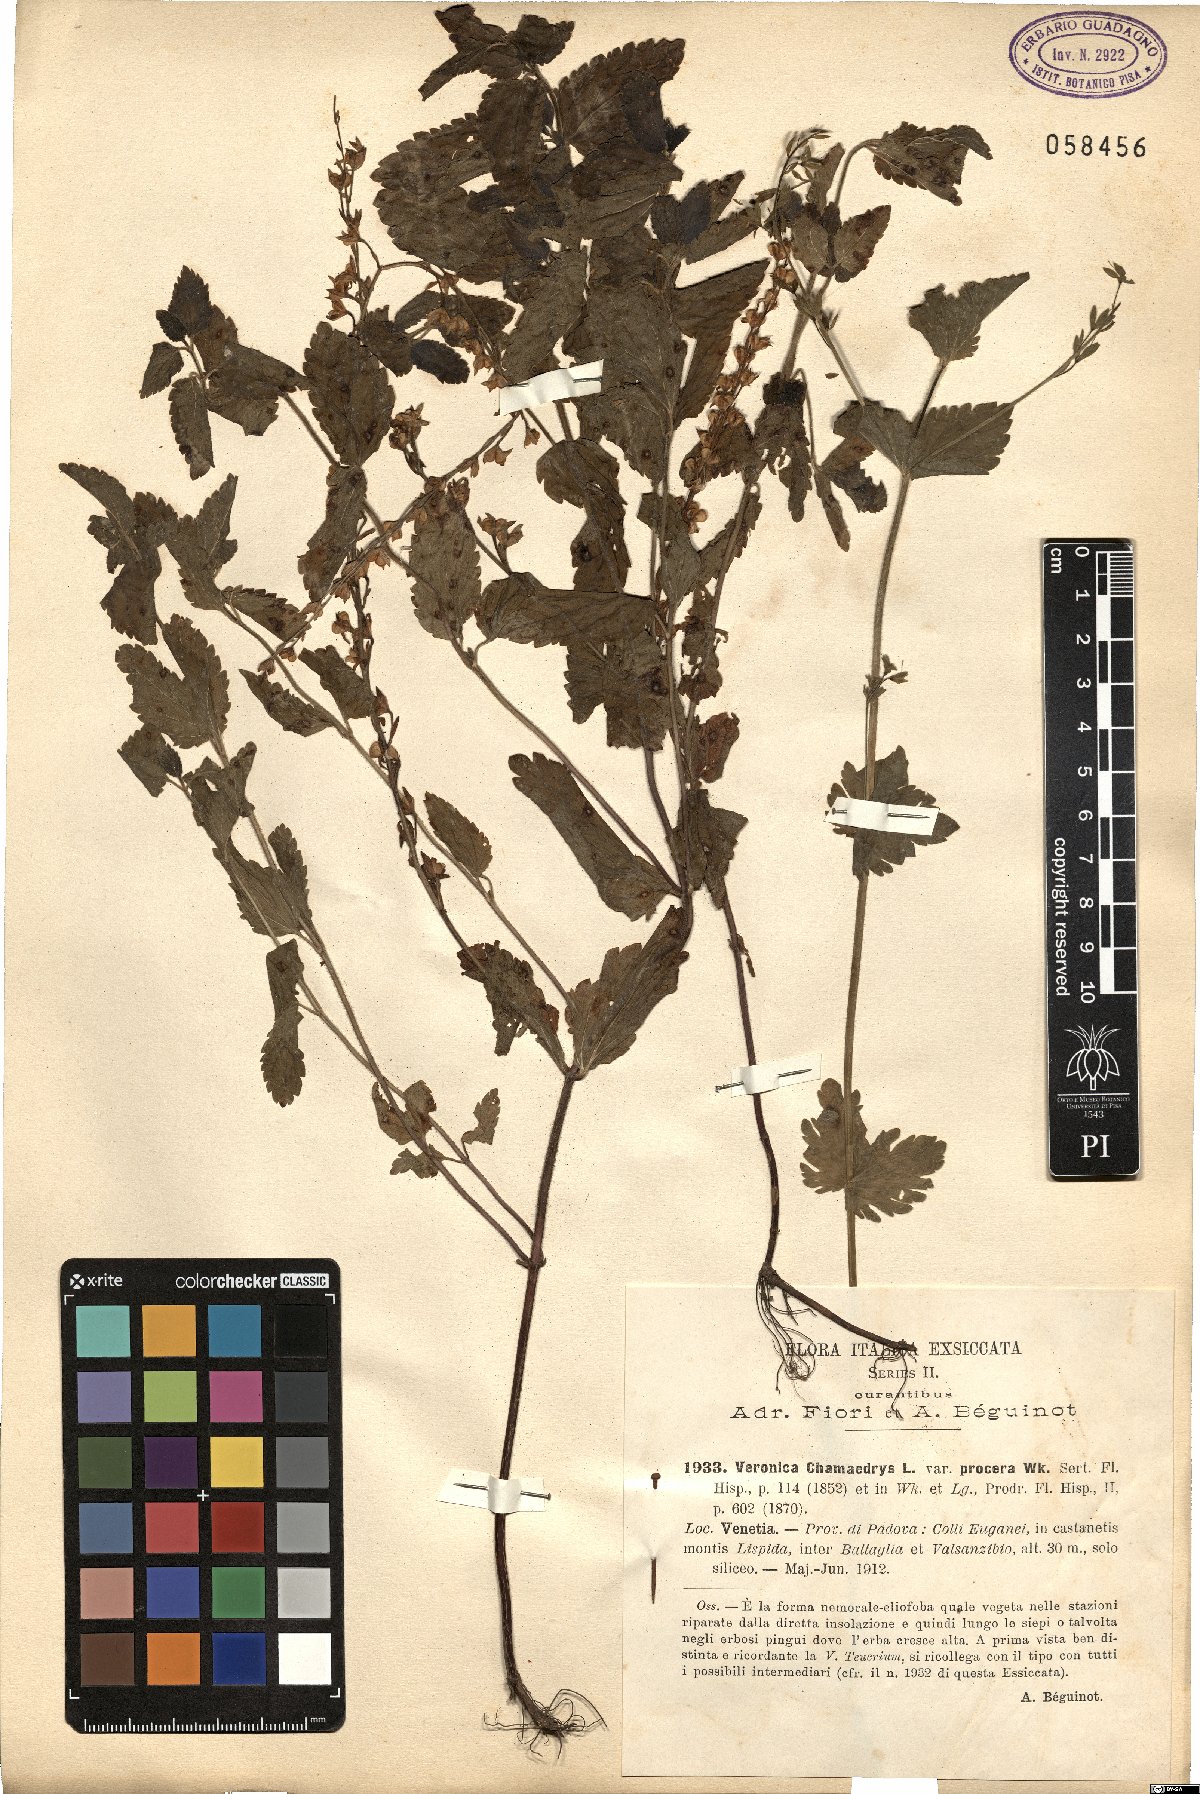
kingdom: Plantae
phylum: Tracheophyta
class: Magnoliopsida
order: Lamiales
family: Plantaginaceae
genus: Veronica
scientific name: Veronica chamaedrys
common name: Germander speedwell
